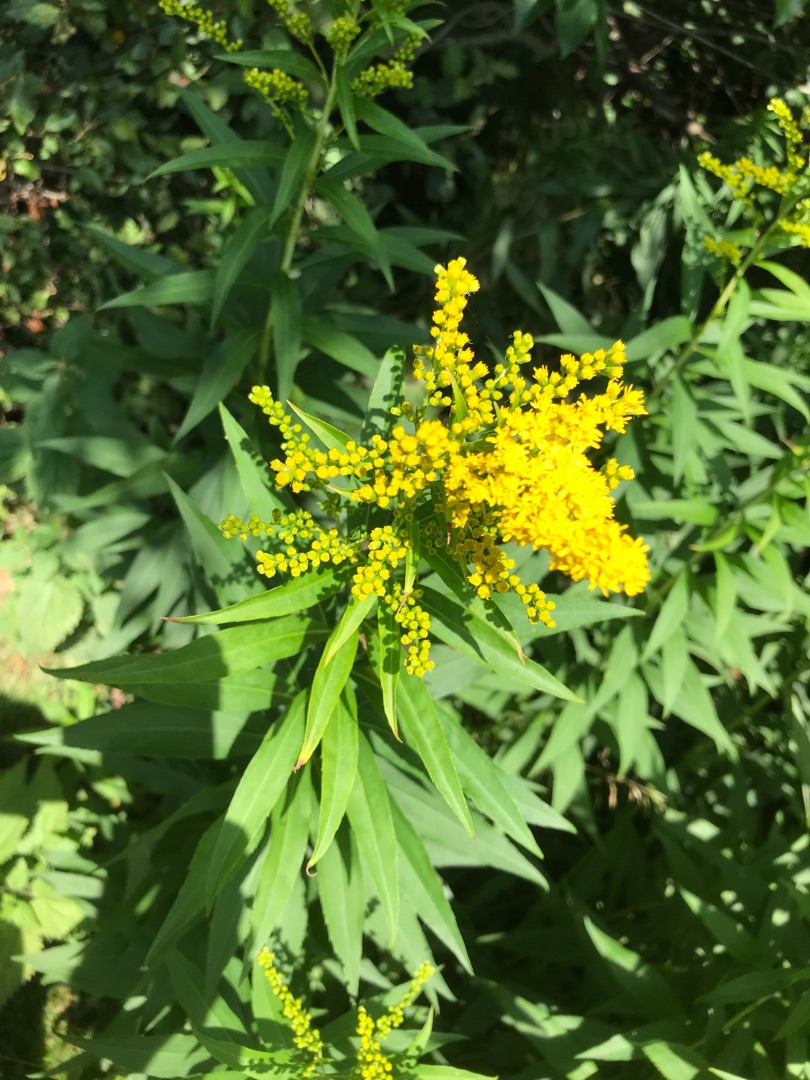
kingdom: Plantae
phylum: Tracheophyta
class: Magnoliopsida
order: Asterales
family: Asteraceae
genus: Solidago
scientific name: Solidago gigantea
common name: Sildig gyldenris
